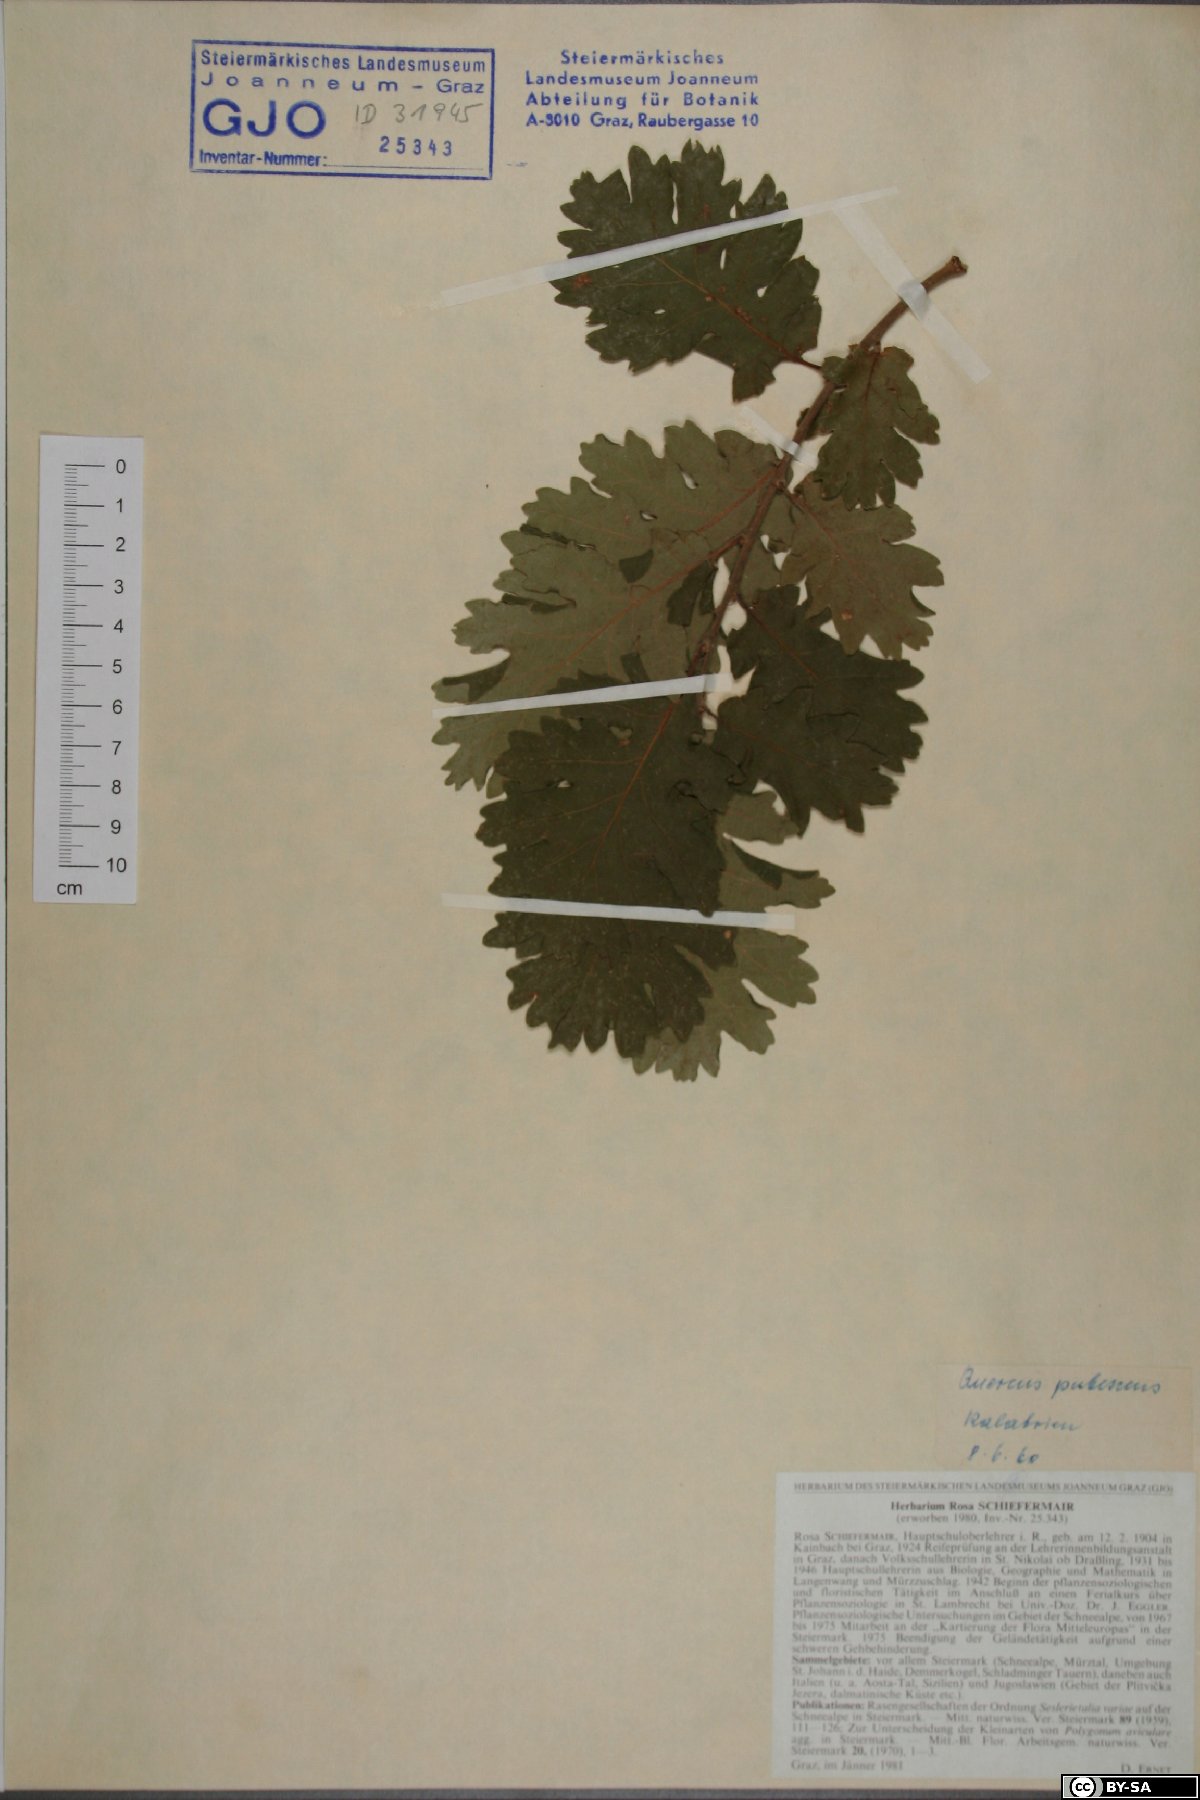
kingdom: Plantae
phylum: Tracheophyta
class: Magnoliopsida
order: Fagales
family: Fagaceae
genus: Quercus
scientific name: Quercus pubescens
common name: Downy oak
